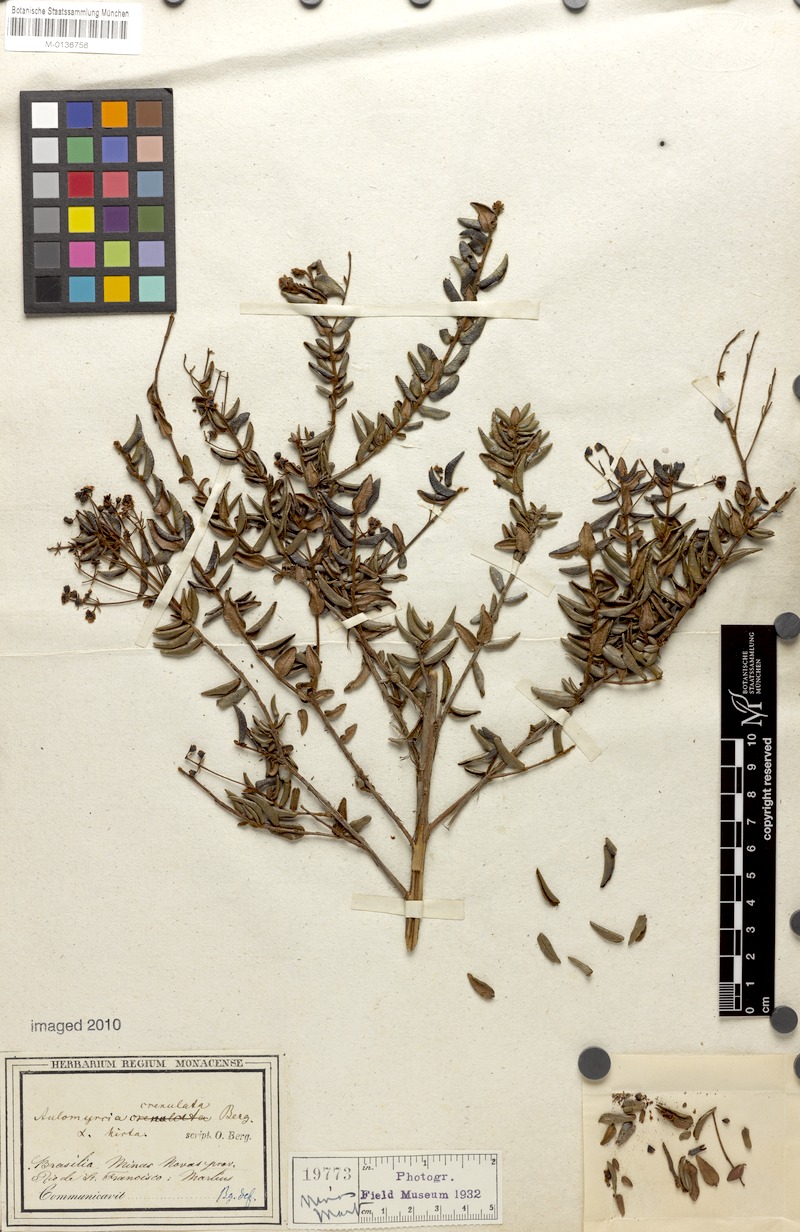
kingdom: Plantae
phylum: Tracheophyta
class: Magnoliopsida
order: Myrtales
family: Myrtaceae
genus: Myrcia
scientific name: Myrcia crenulata
